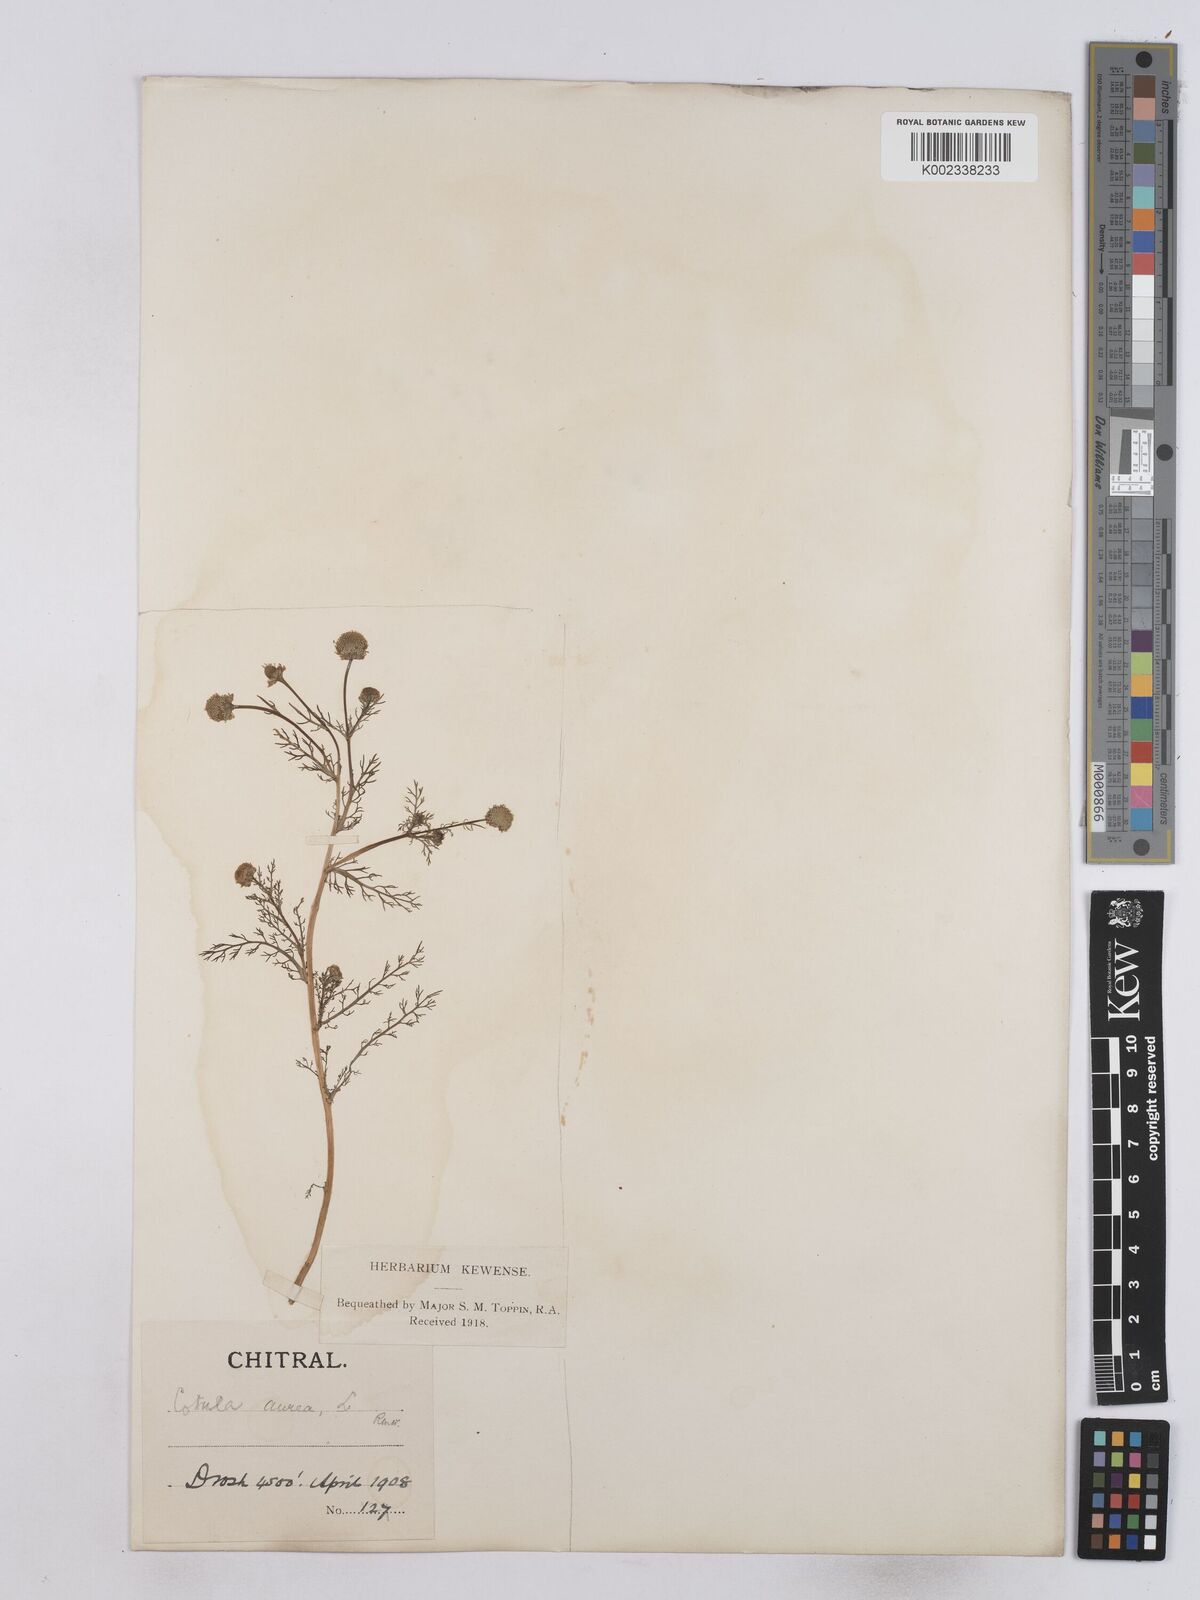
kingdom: Plantae
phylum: Tracheophyta
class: Magnoliopsida
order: Asterales
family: Asteraceae
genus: Matricaria
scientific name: Matricaria aurea
